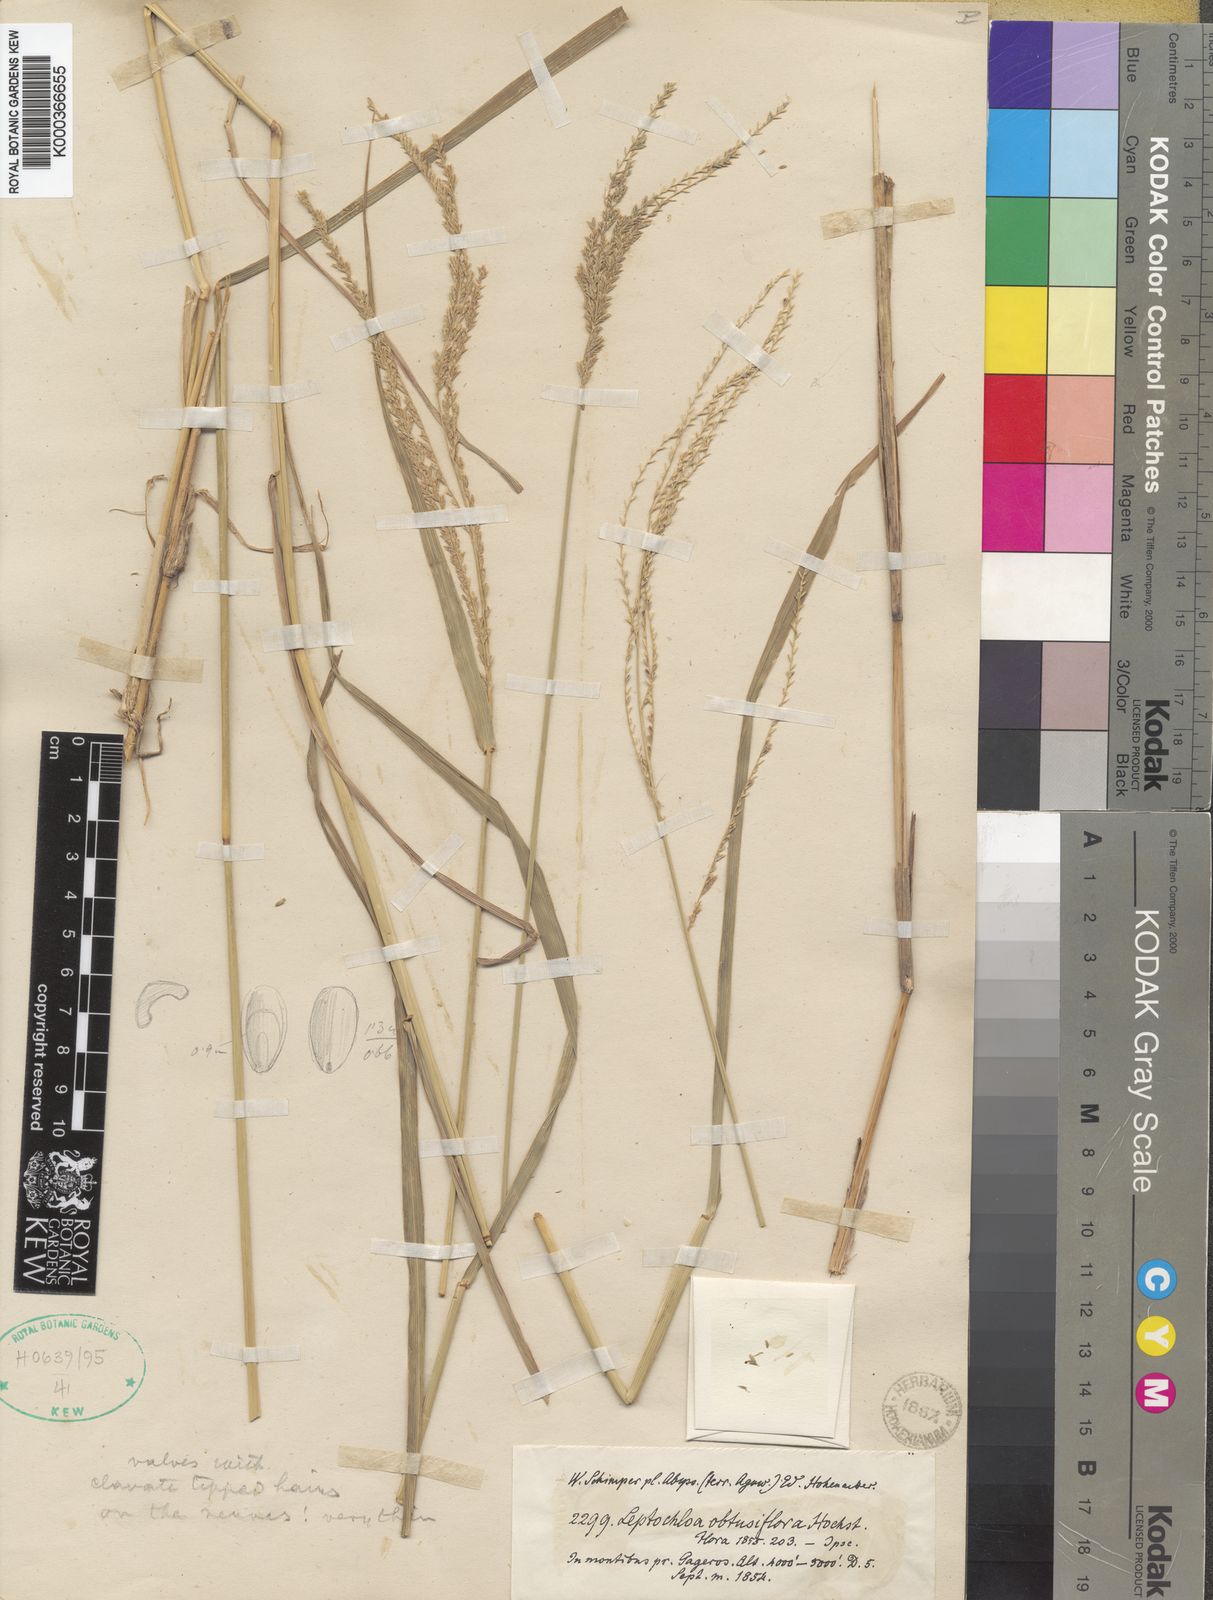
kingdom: Plantae
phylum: Tracheophyta
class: Liliopsida
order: Poales
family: Poaceae
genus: Disakisperma
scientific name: Disakisperma obtusiflorum
